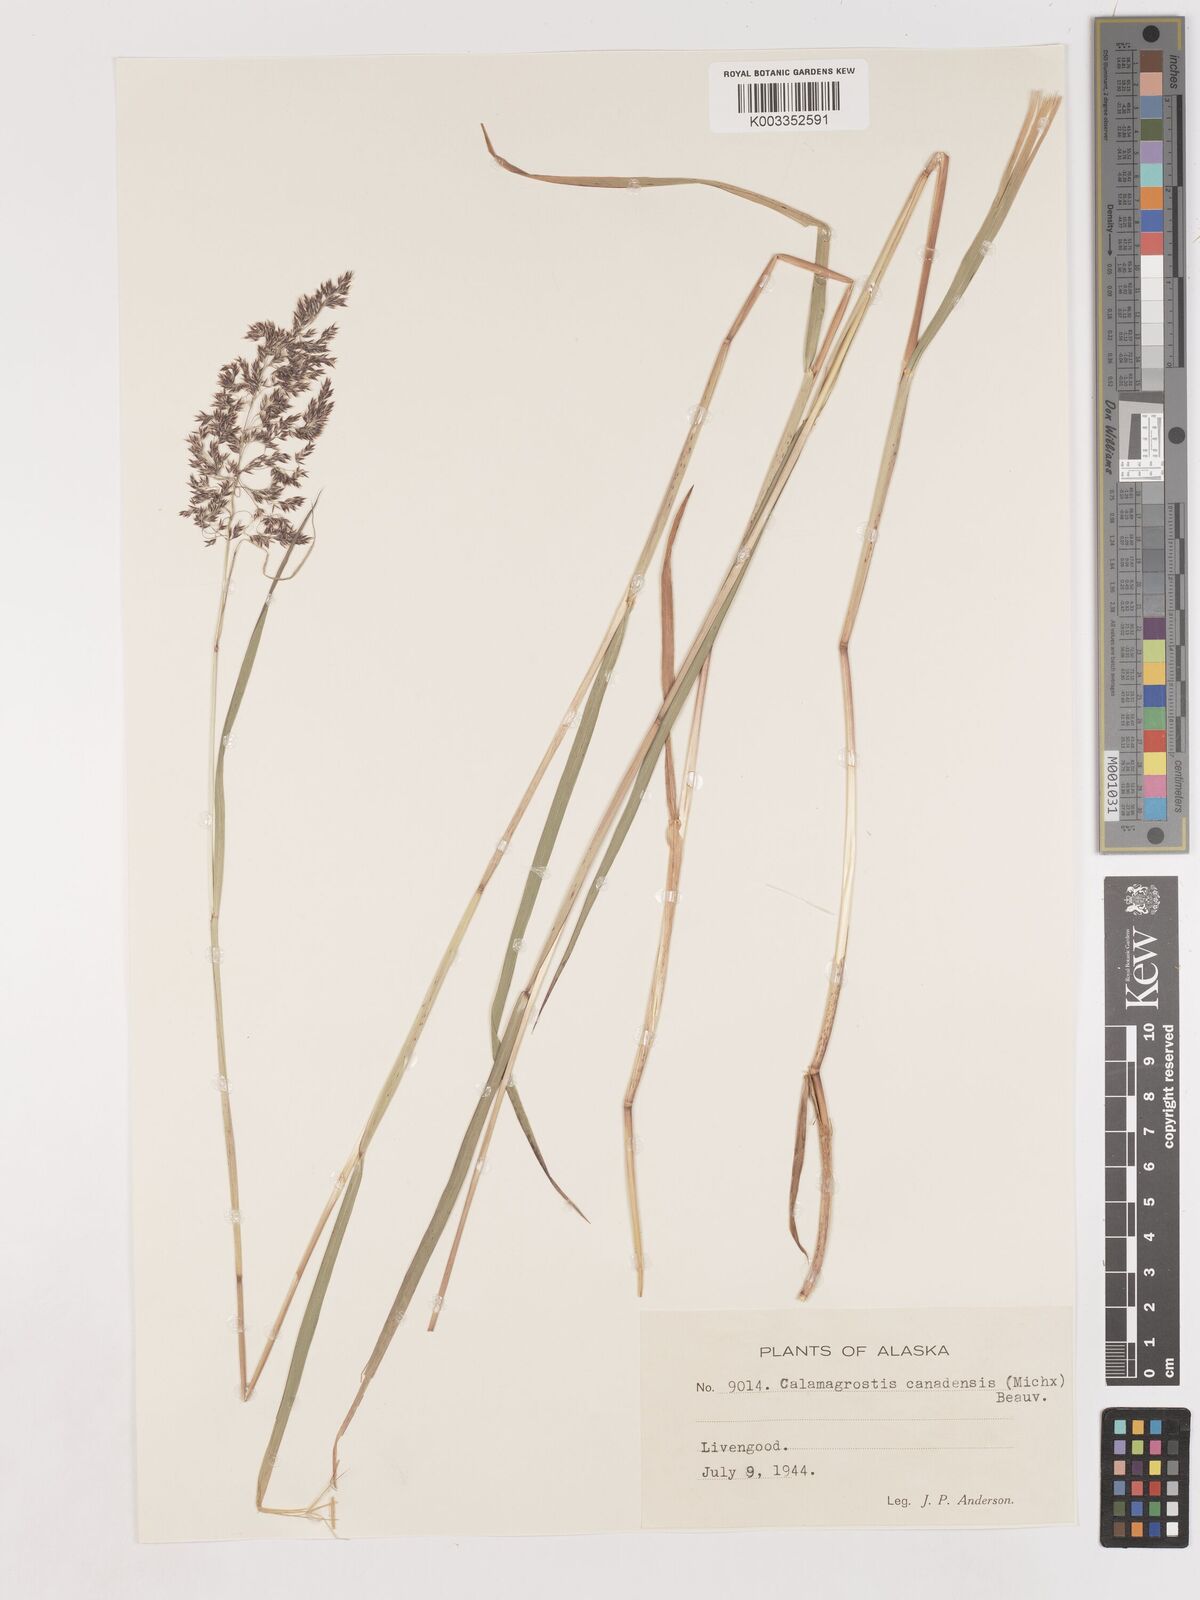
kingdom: Plantae
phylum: Tracheophyta
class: Liliopsida
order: Poales
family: Poaceae
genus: Calamagrostis
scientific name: Calamagrostis canadensis
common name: Canada bluejoint
